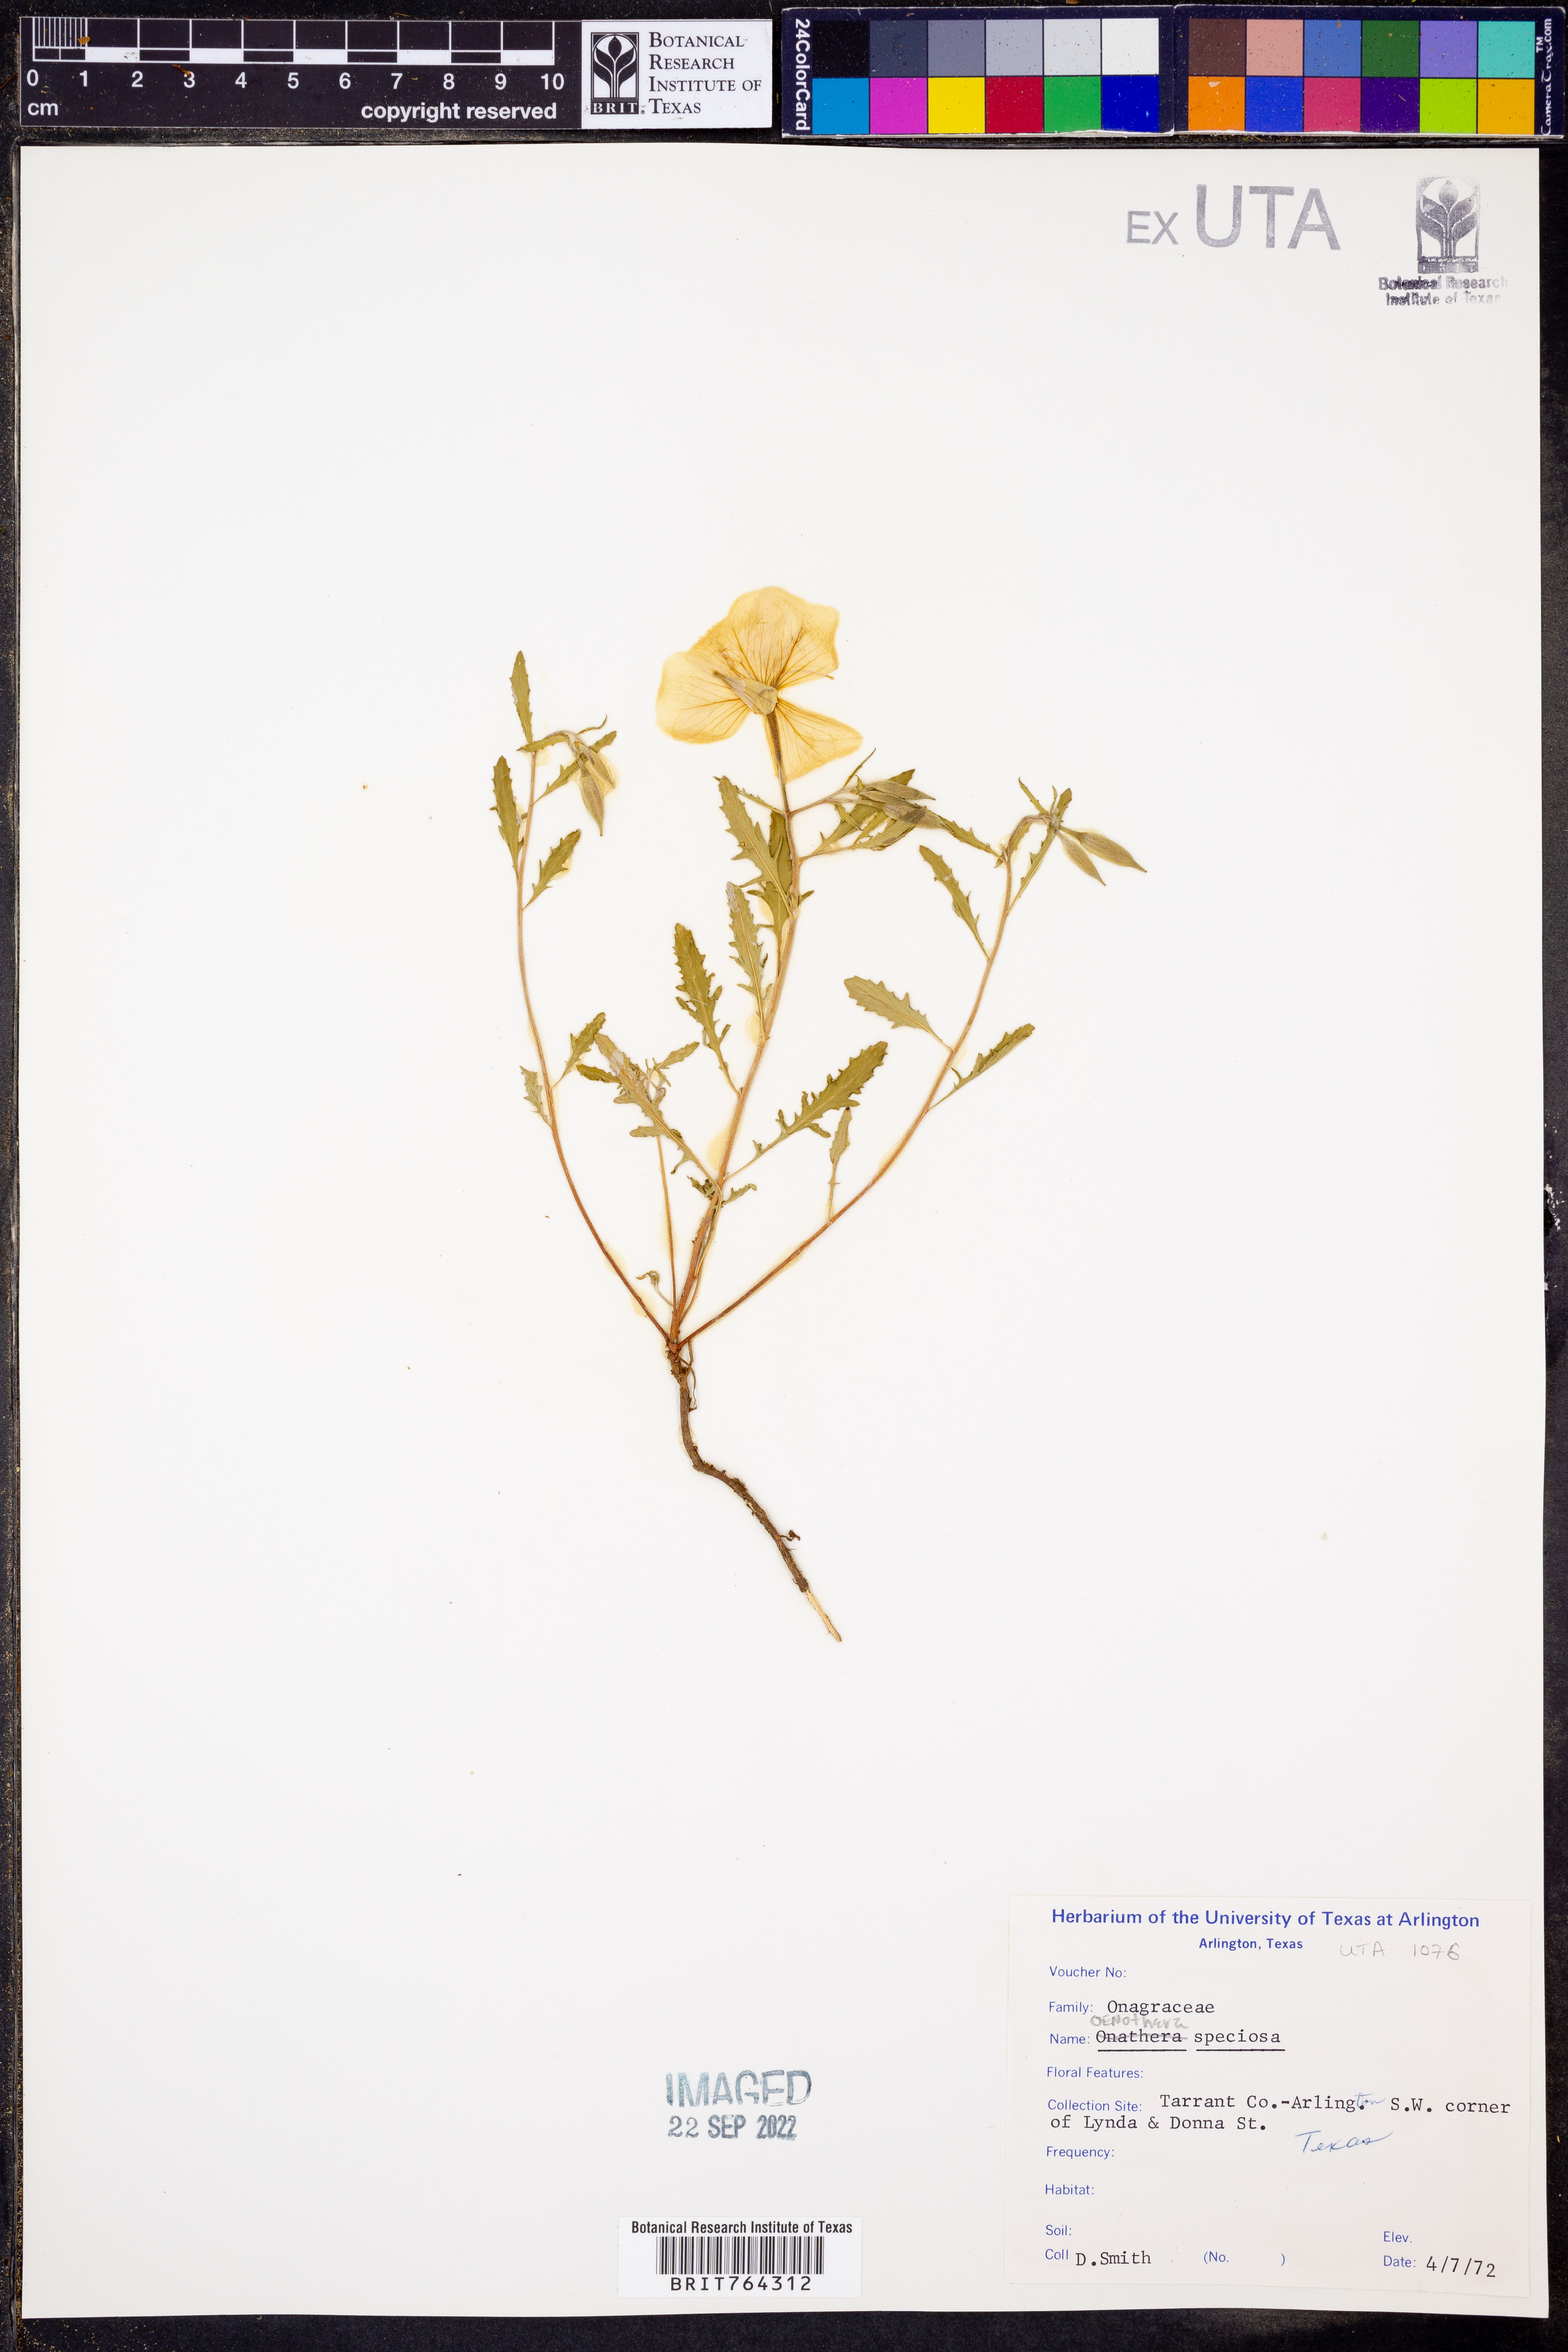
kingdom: Plantae
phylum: Tracheophyta
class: Magnoliopsida
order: Myrtales
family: Onagraceae
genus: Oenothera
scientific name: Oenothera speciosa
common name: White evening-primrose
